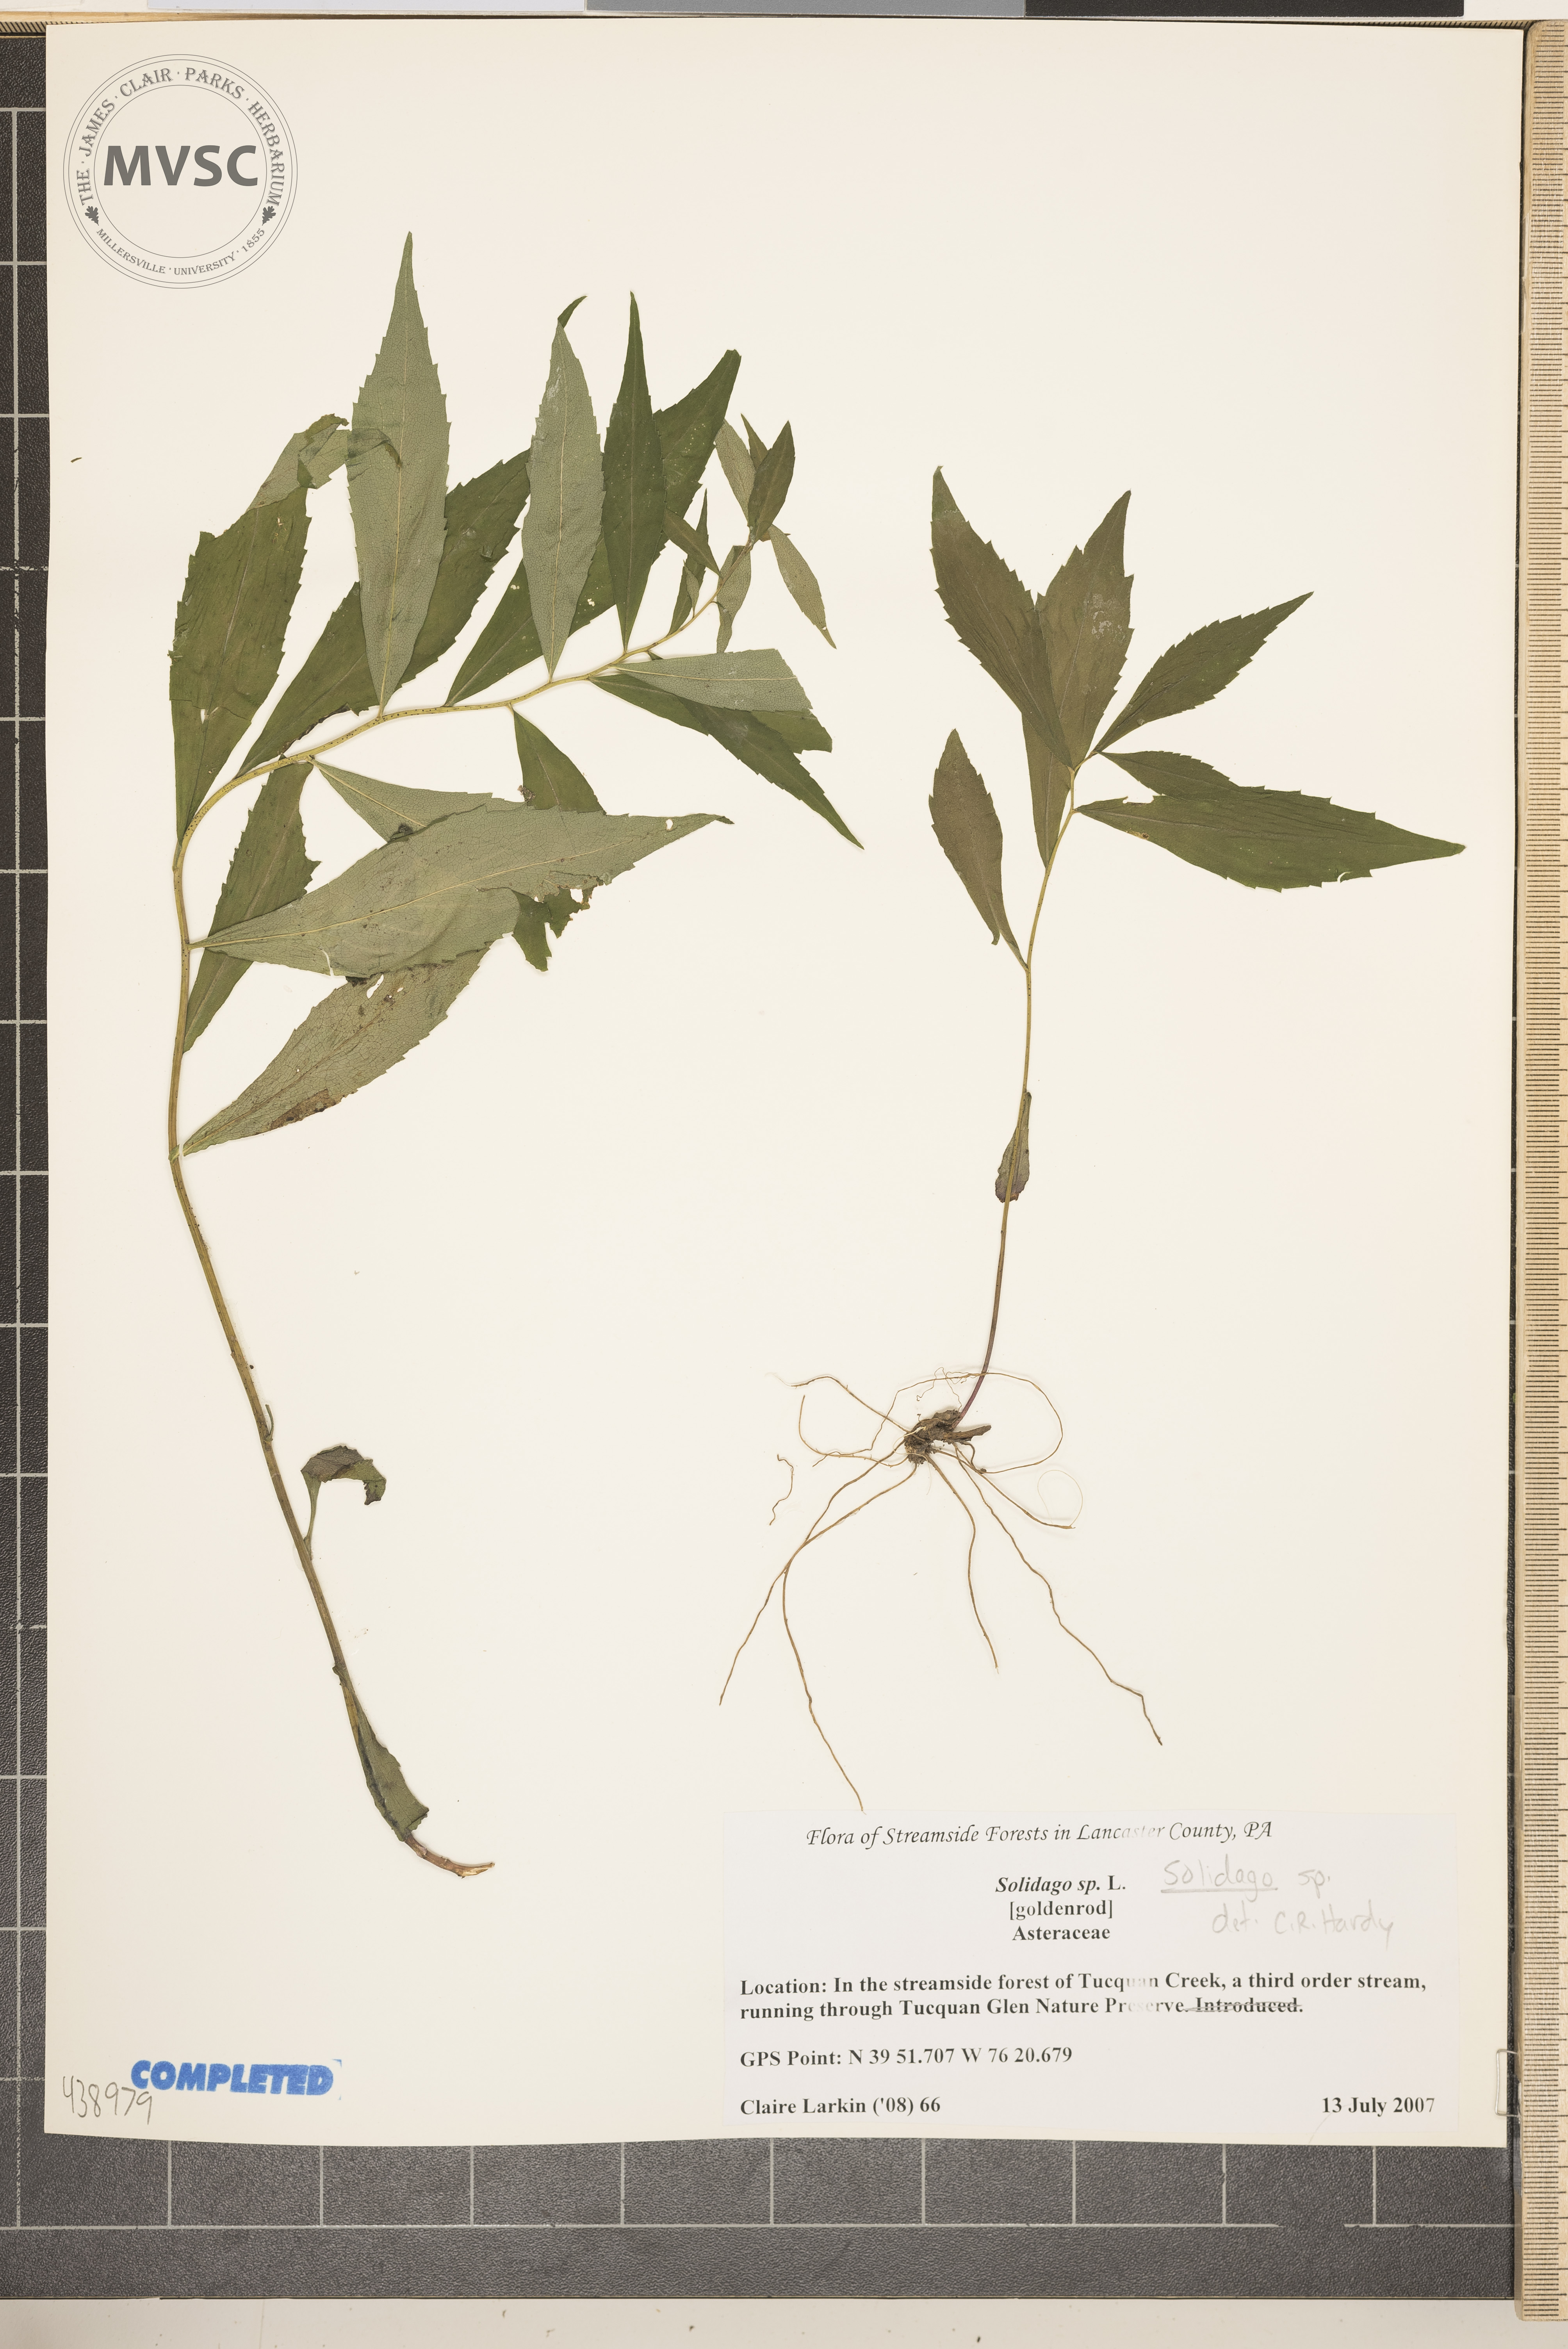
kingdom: Plantae
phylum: Tracheophyta
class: Magnoliopsida
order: Asterales
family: Asteraceae
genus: Solidago
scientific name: Solidago
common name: Goldenrod
